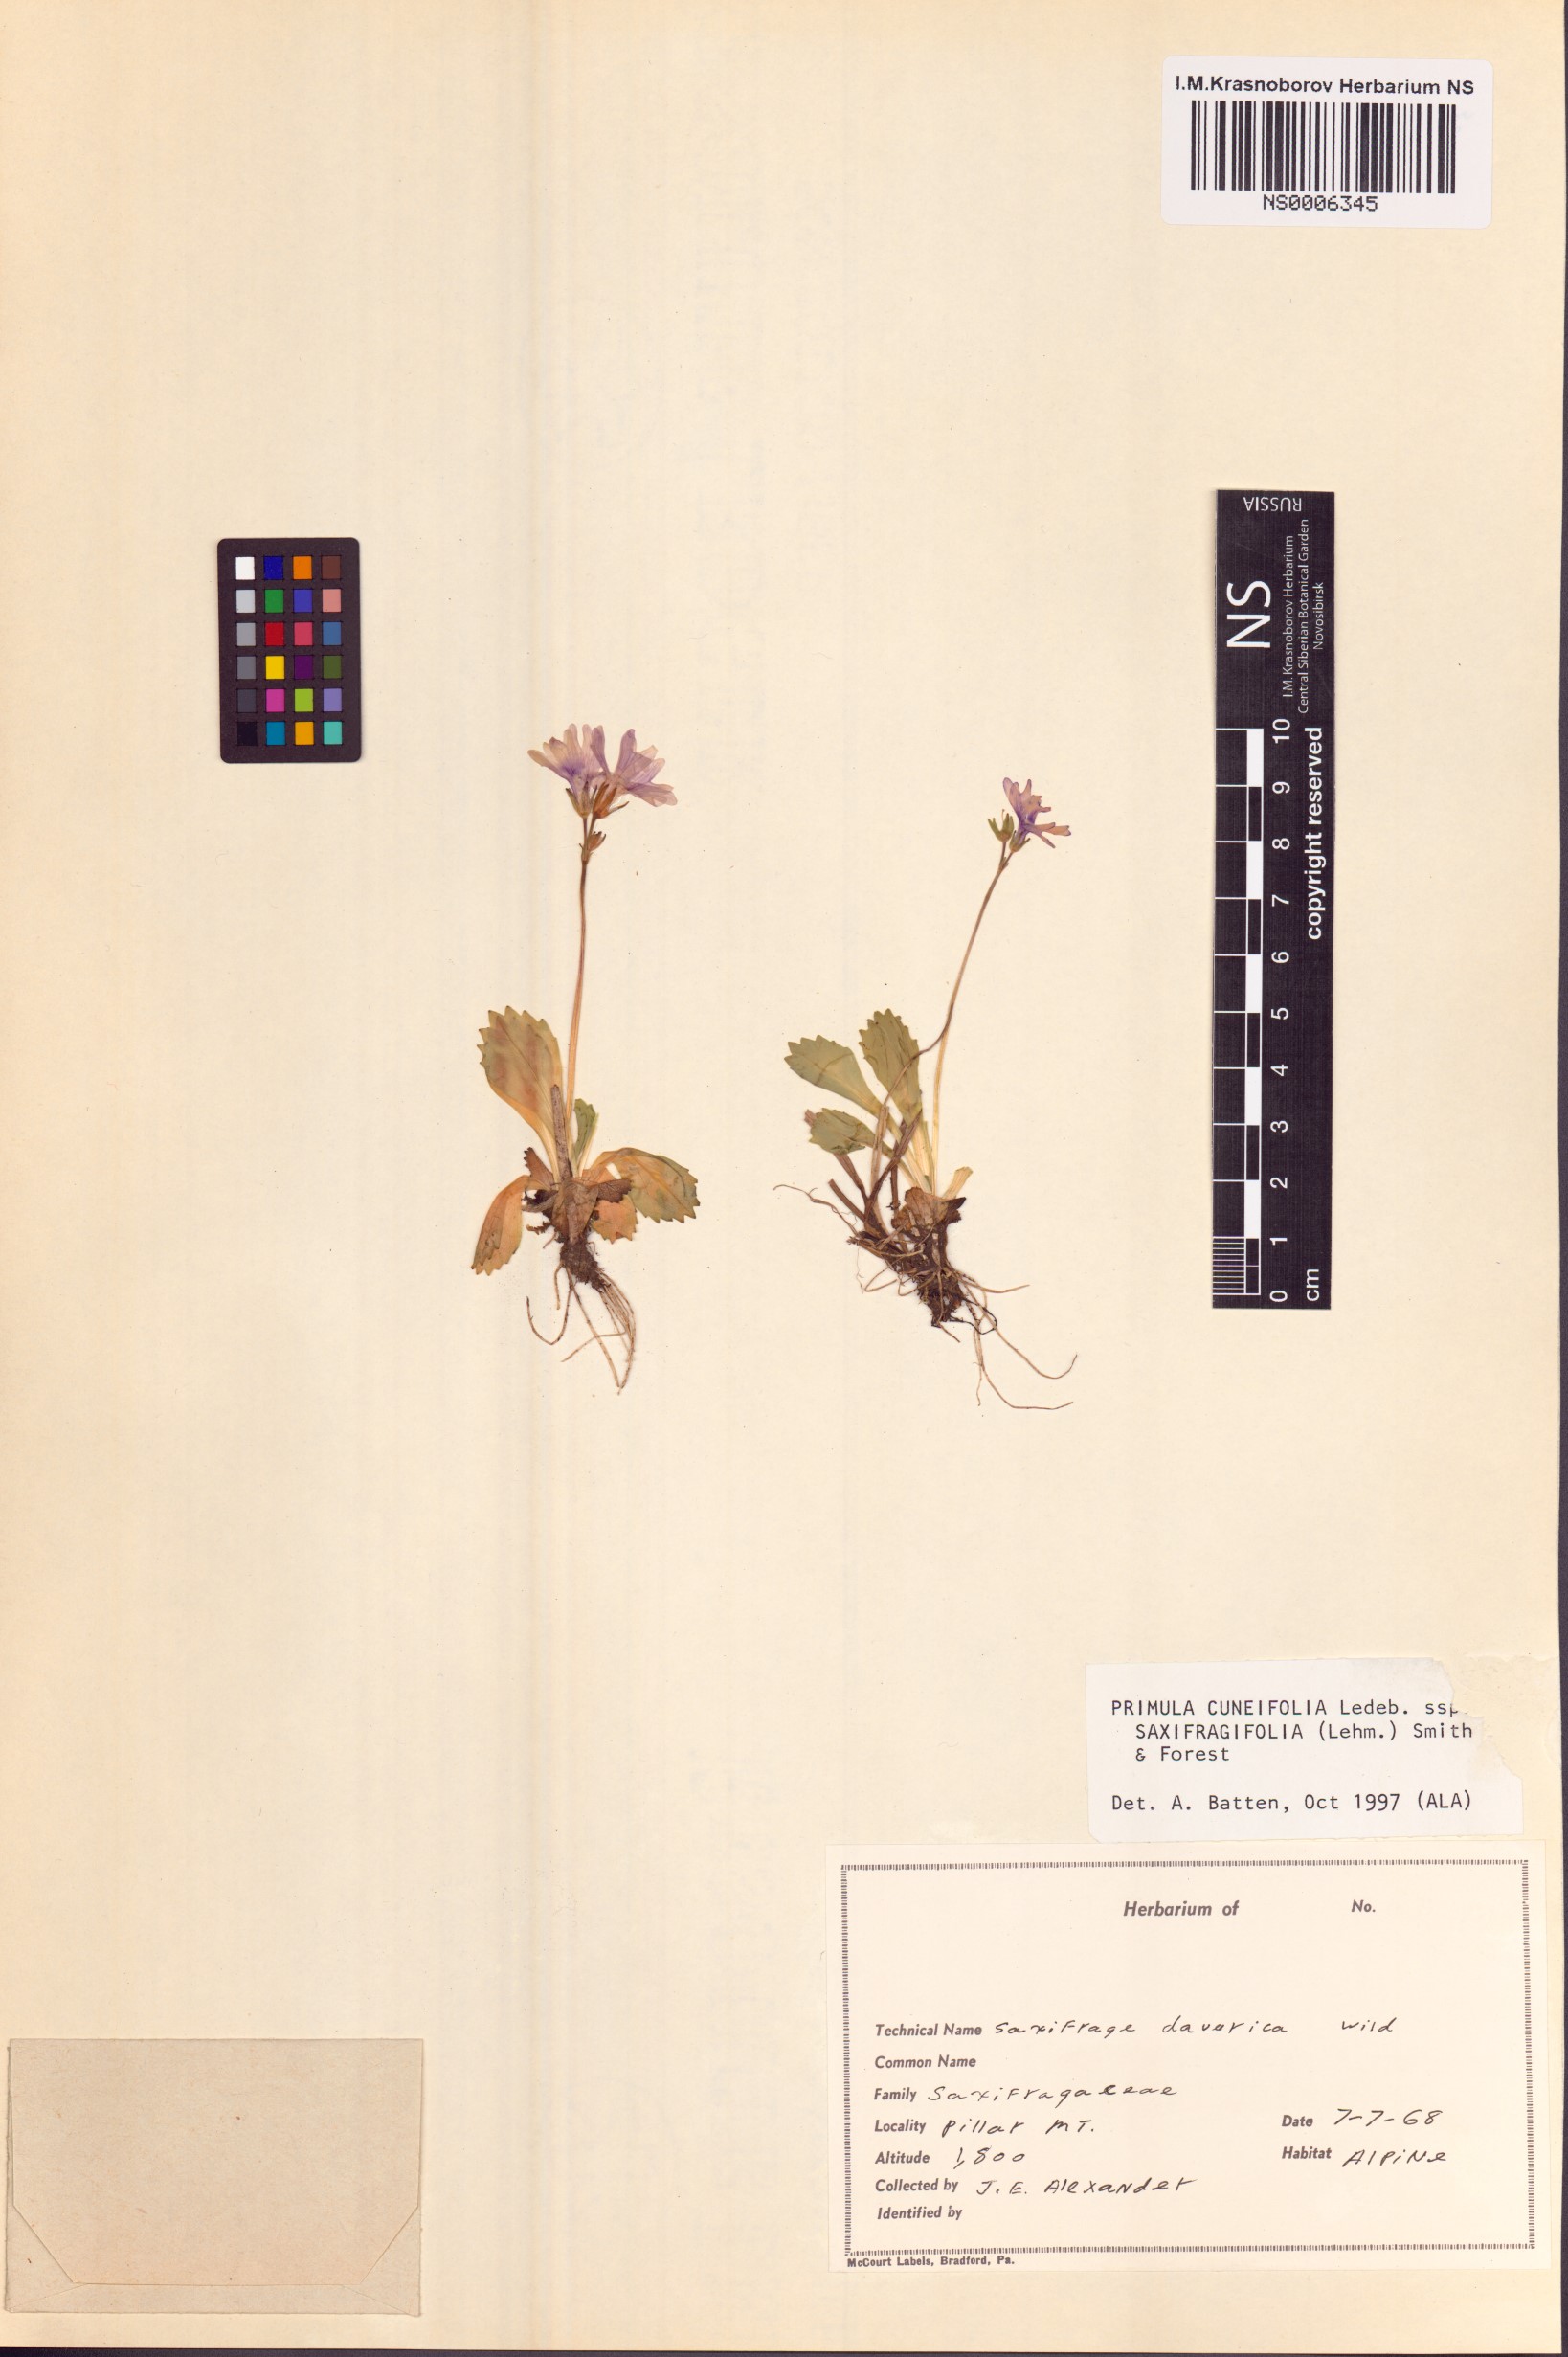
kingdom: Plantae
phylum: Tracheophyta
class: Magnoliopsida
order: Ericales
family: Primulaceae
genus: Primula
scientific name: Primula cuneifolia
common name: Wedge-leaved primrose
